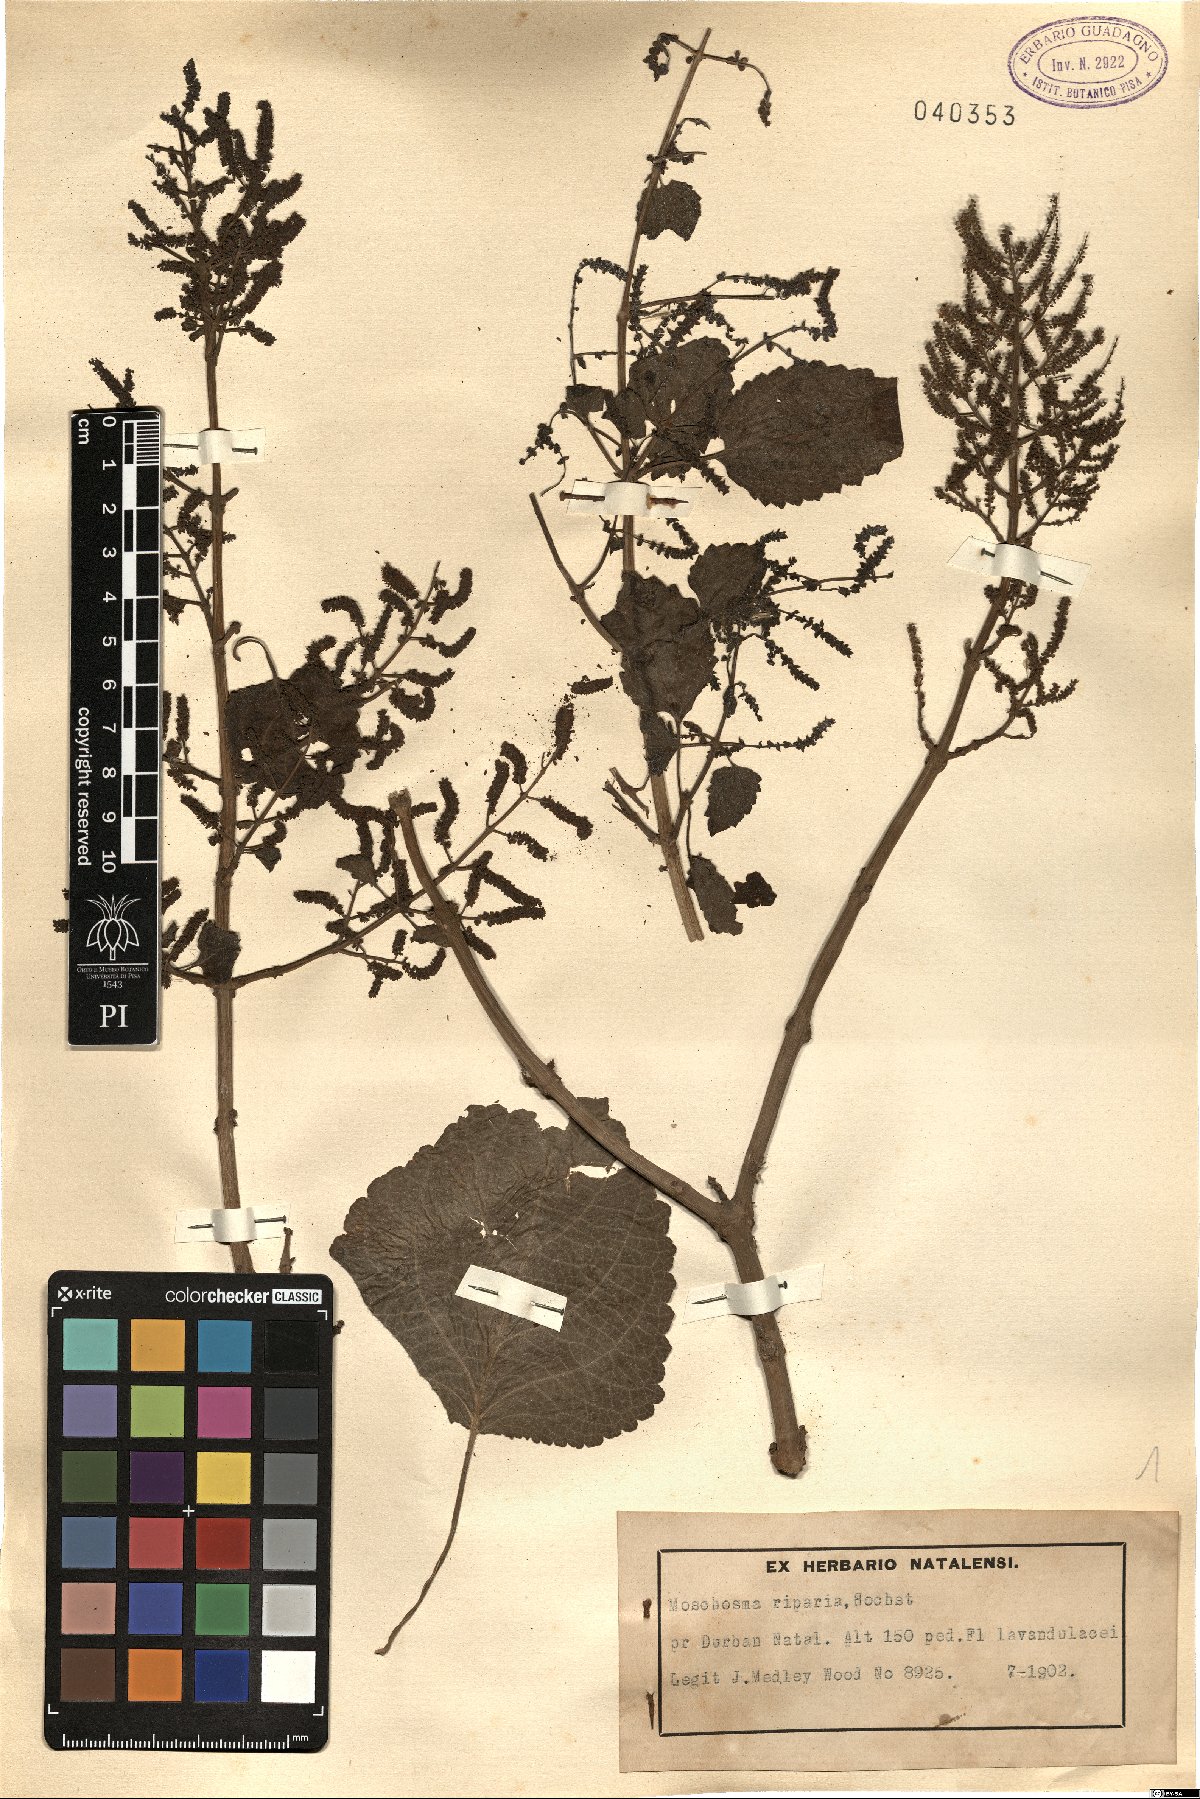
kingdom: Plantae
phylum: Tracheophyta
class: Magnoliopsida
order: Lamiales
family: Lamiaceae
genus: Tetradenia
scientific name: Tetradenia riparia
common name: Gingerbush
